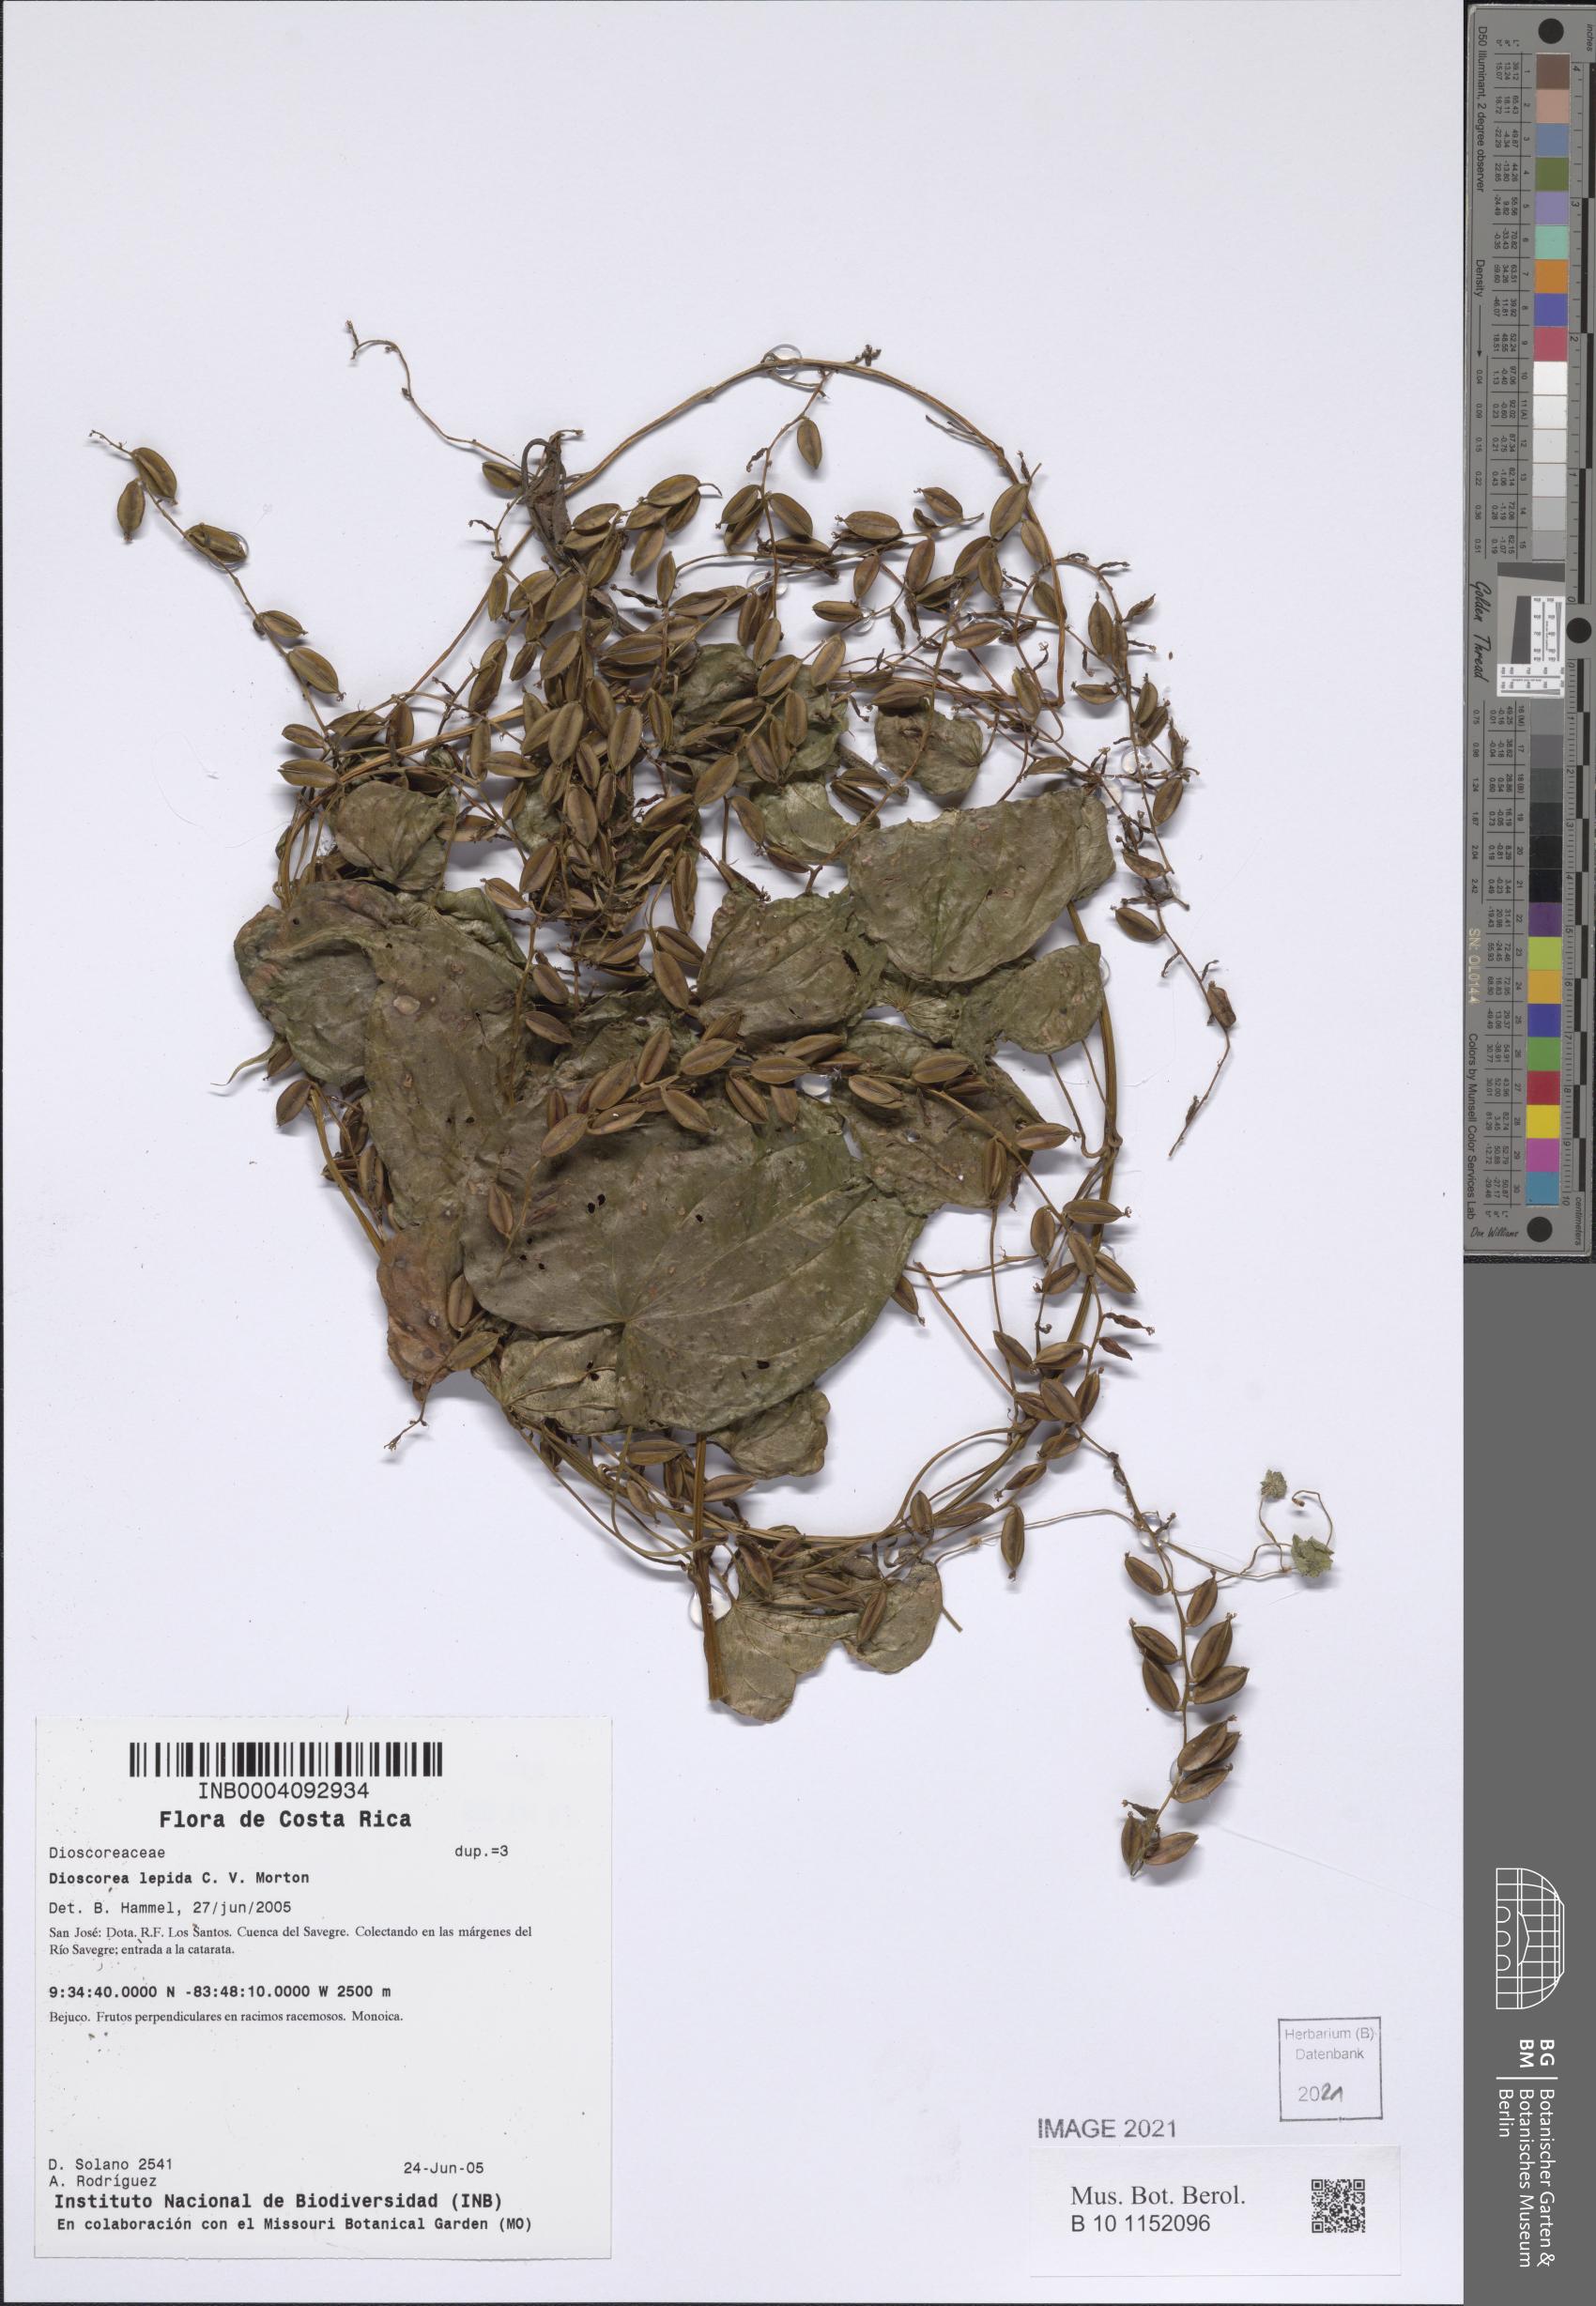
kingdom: Plantae
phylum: Tracheophyta
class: Liliopsida
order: Dioscoreales
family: Dioscoreaceae
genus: Dioscorea
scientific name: Dioscorea lepida
